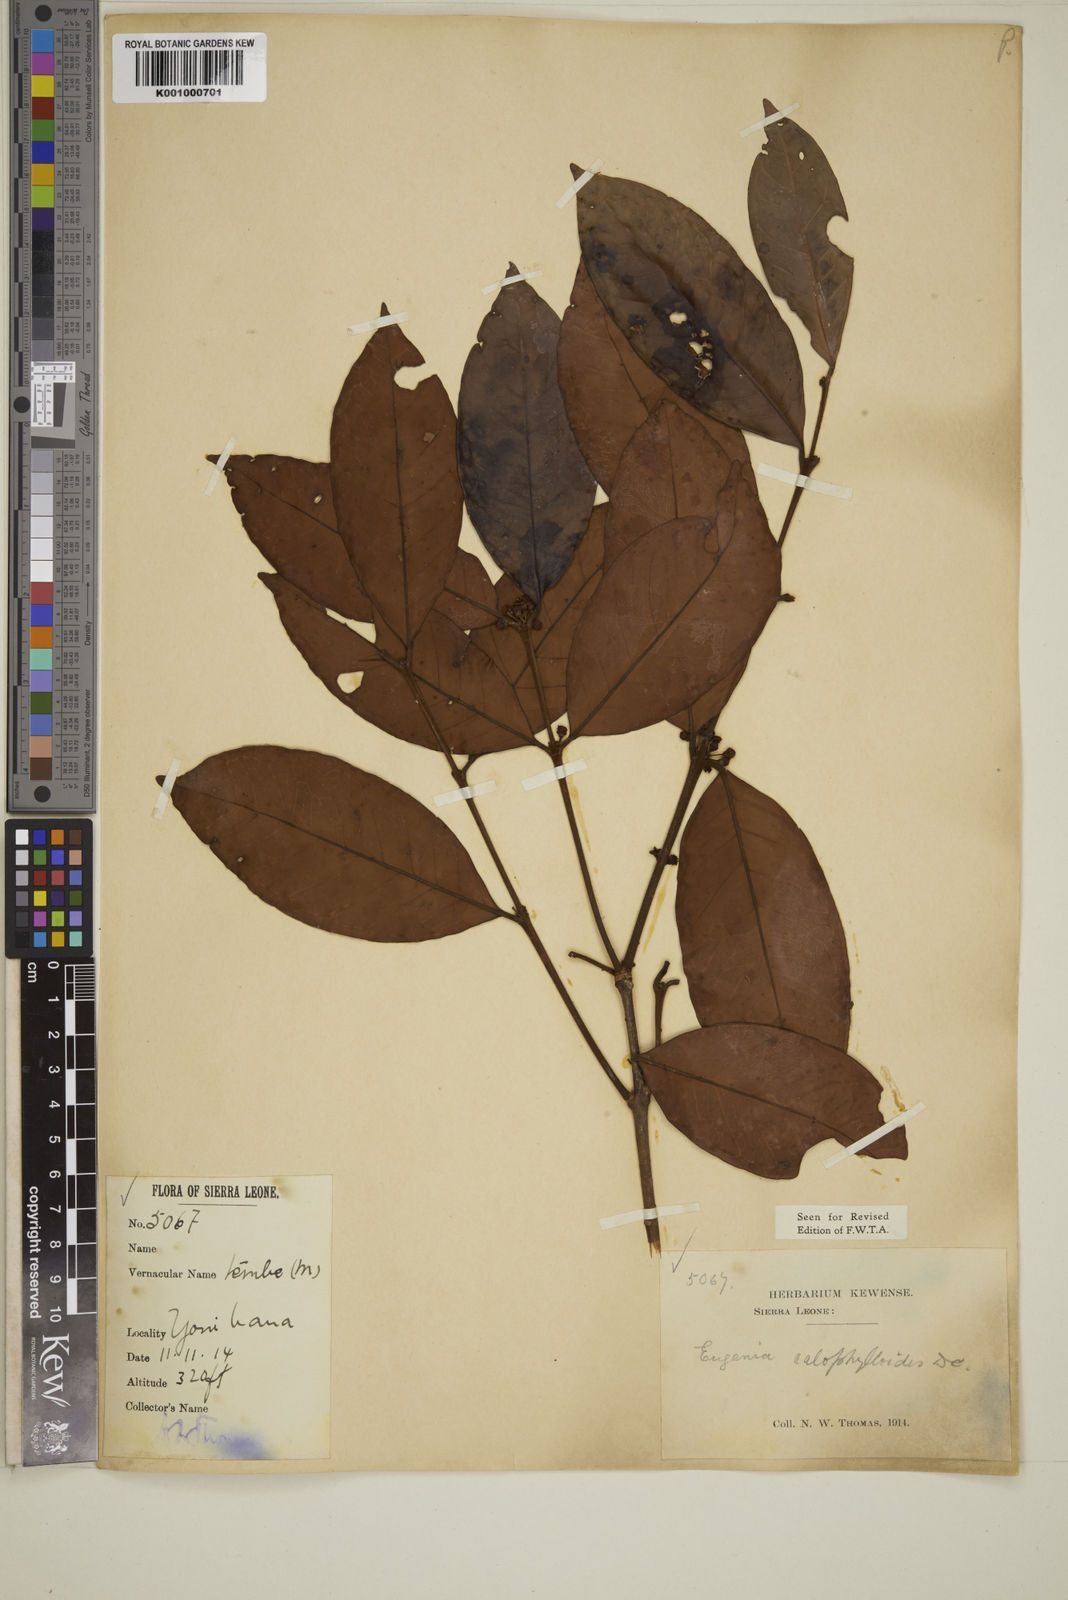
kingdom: Plantae
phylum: Tracheophyta
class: Magnoliopsida
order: Myrtales
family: Myrtaceae
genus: Eugenia
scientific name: Eugenia calophylloides
